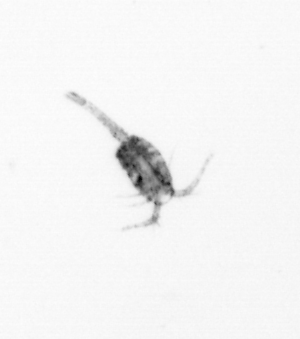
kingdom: Animalia
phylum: Arthropoda
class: Copepoda
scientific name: Copepoda
